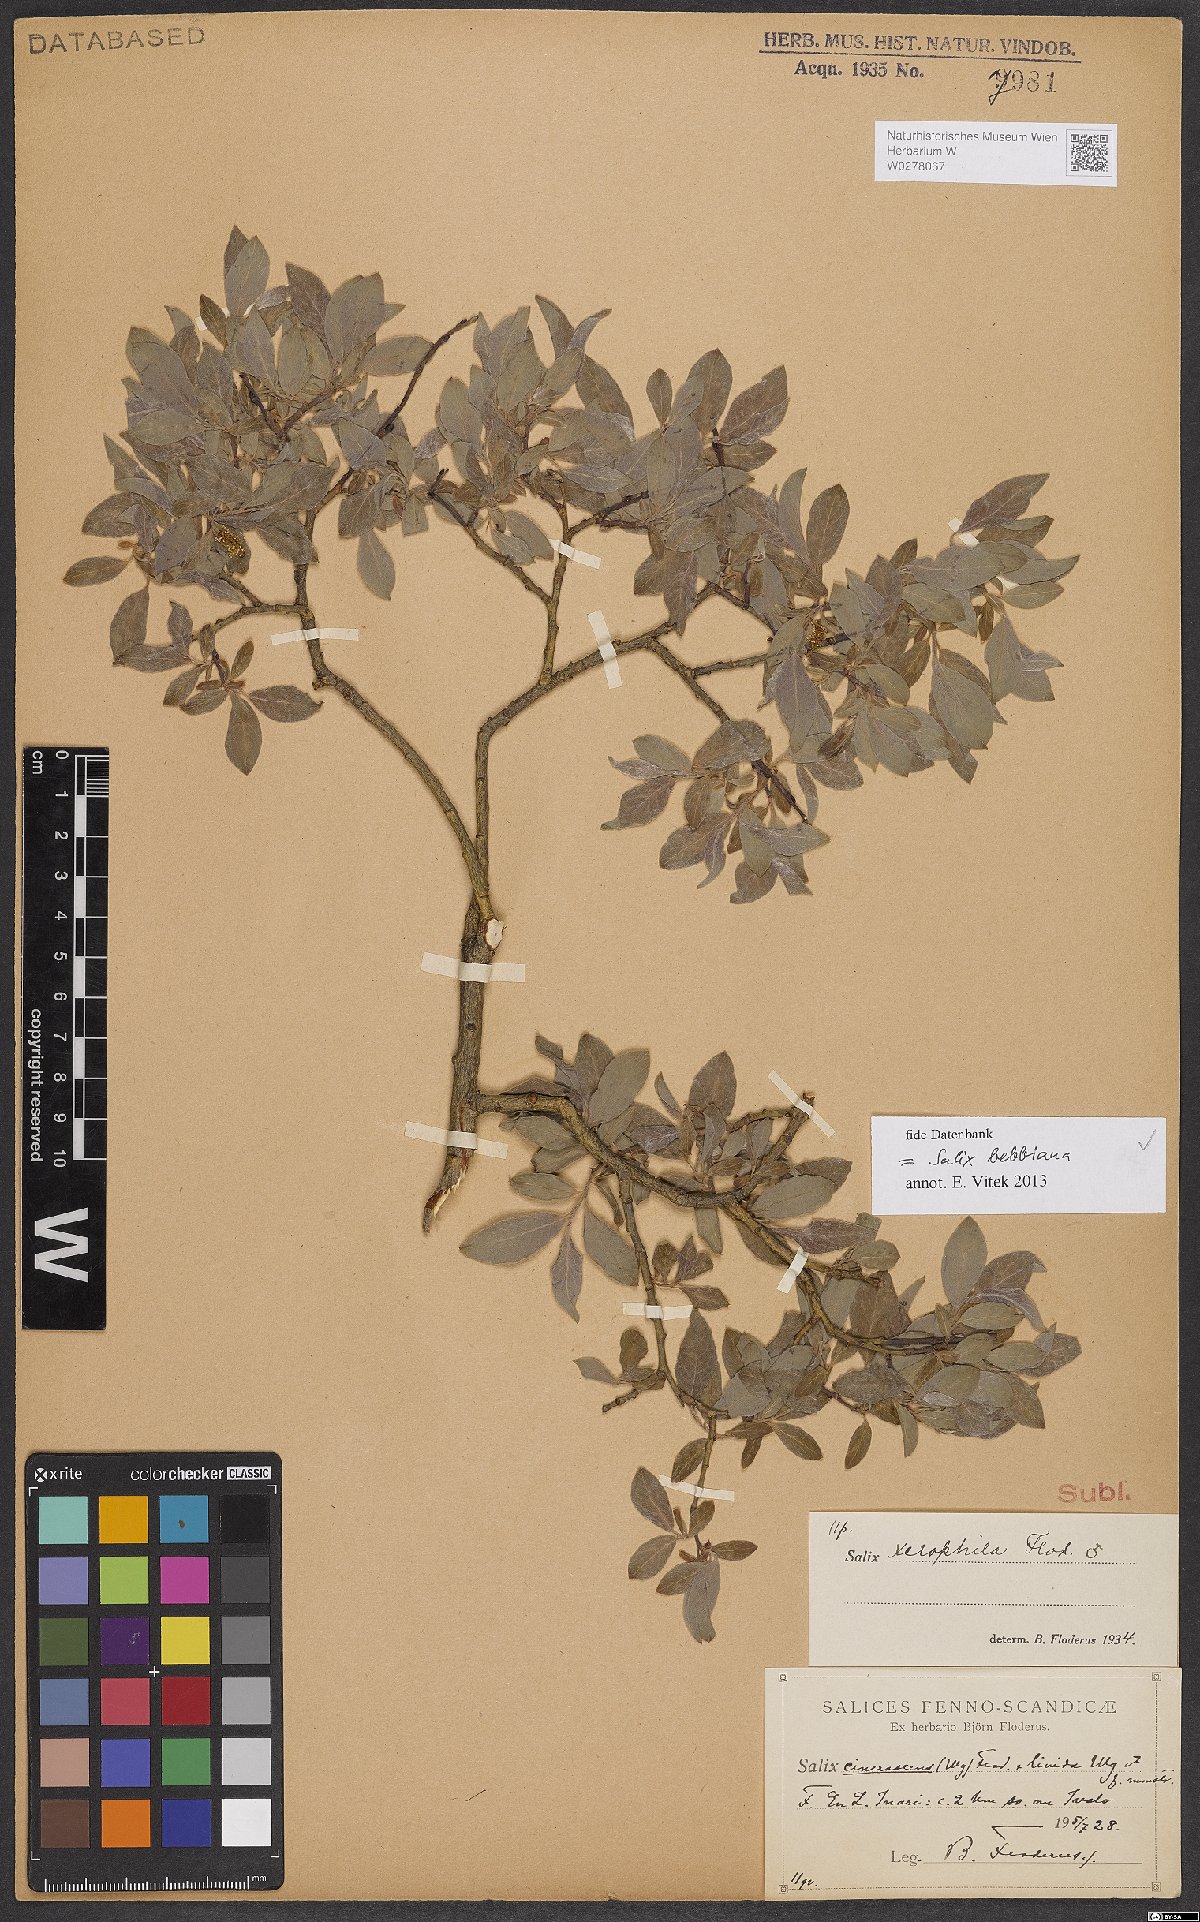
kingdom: Plantae
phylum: Tracheophyta
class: Magnoliopsida
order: Malpighiales
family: Salicaceae
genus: Salix
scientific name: Salix bebbiana
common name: Bebb's willow
